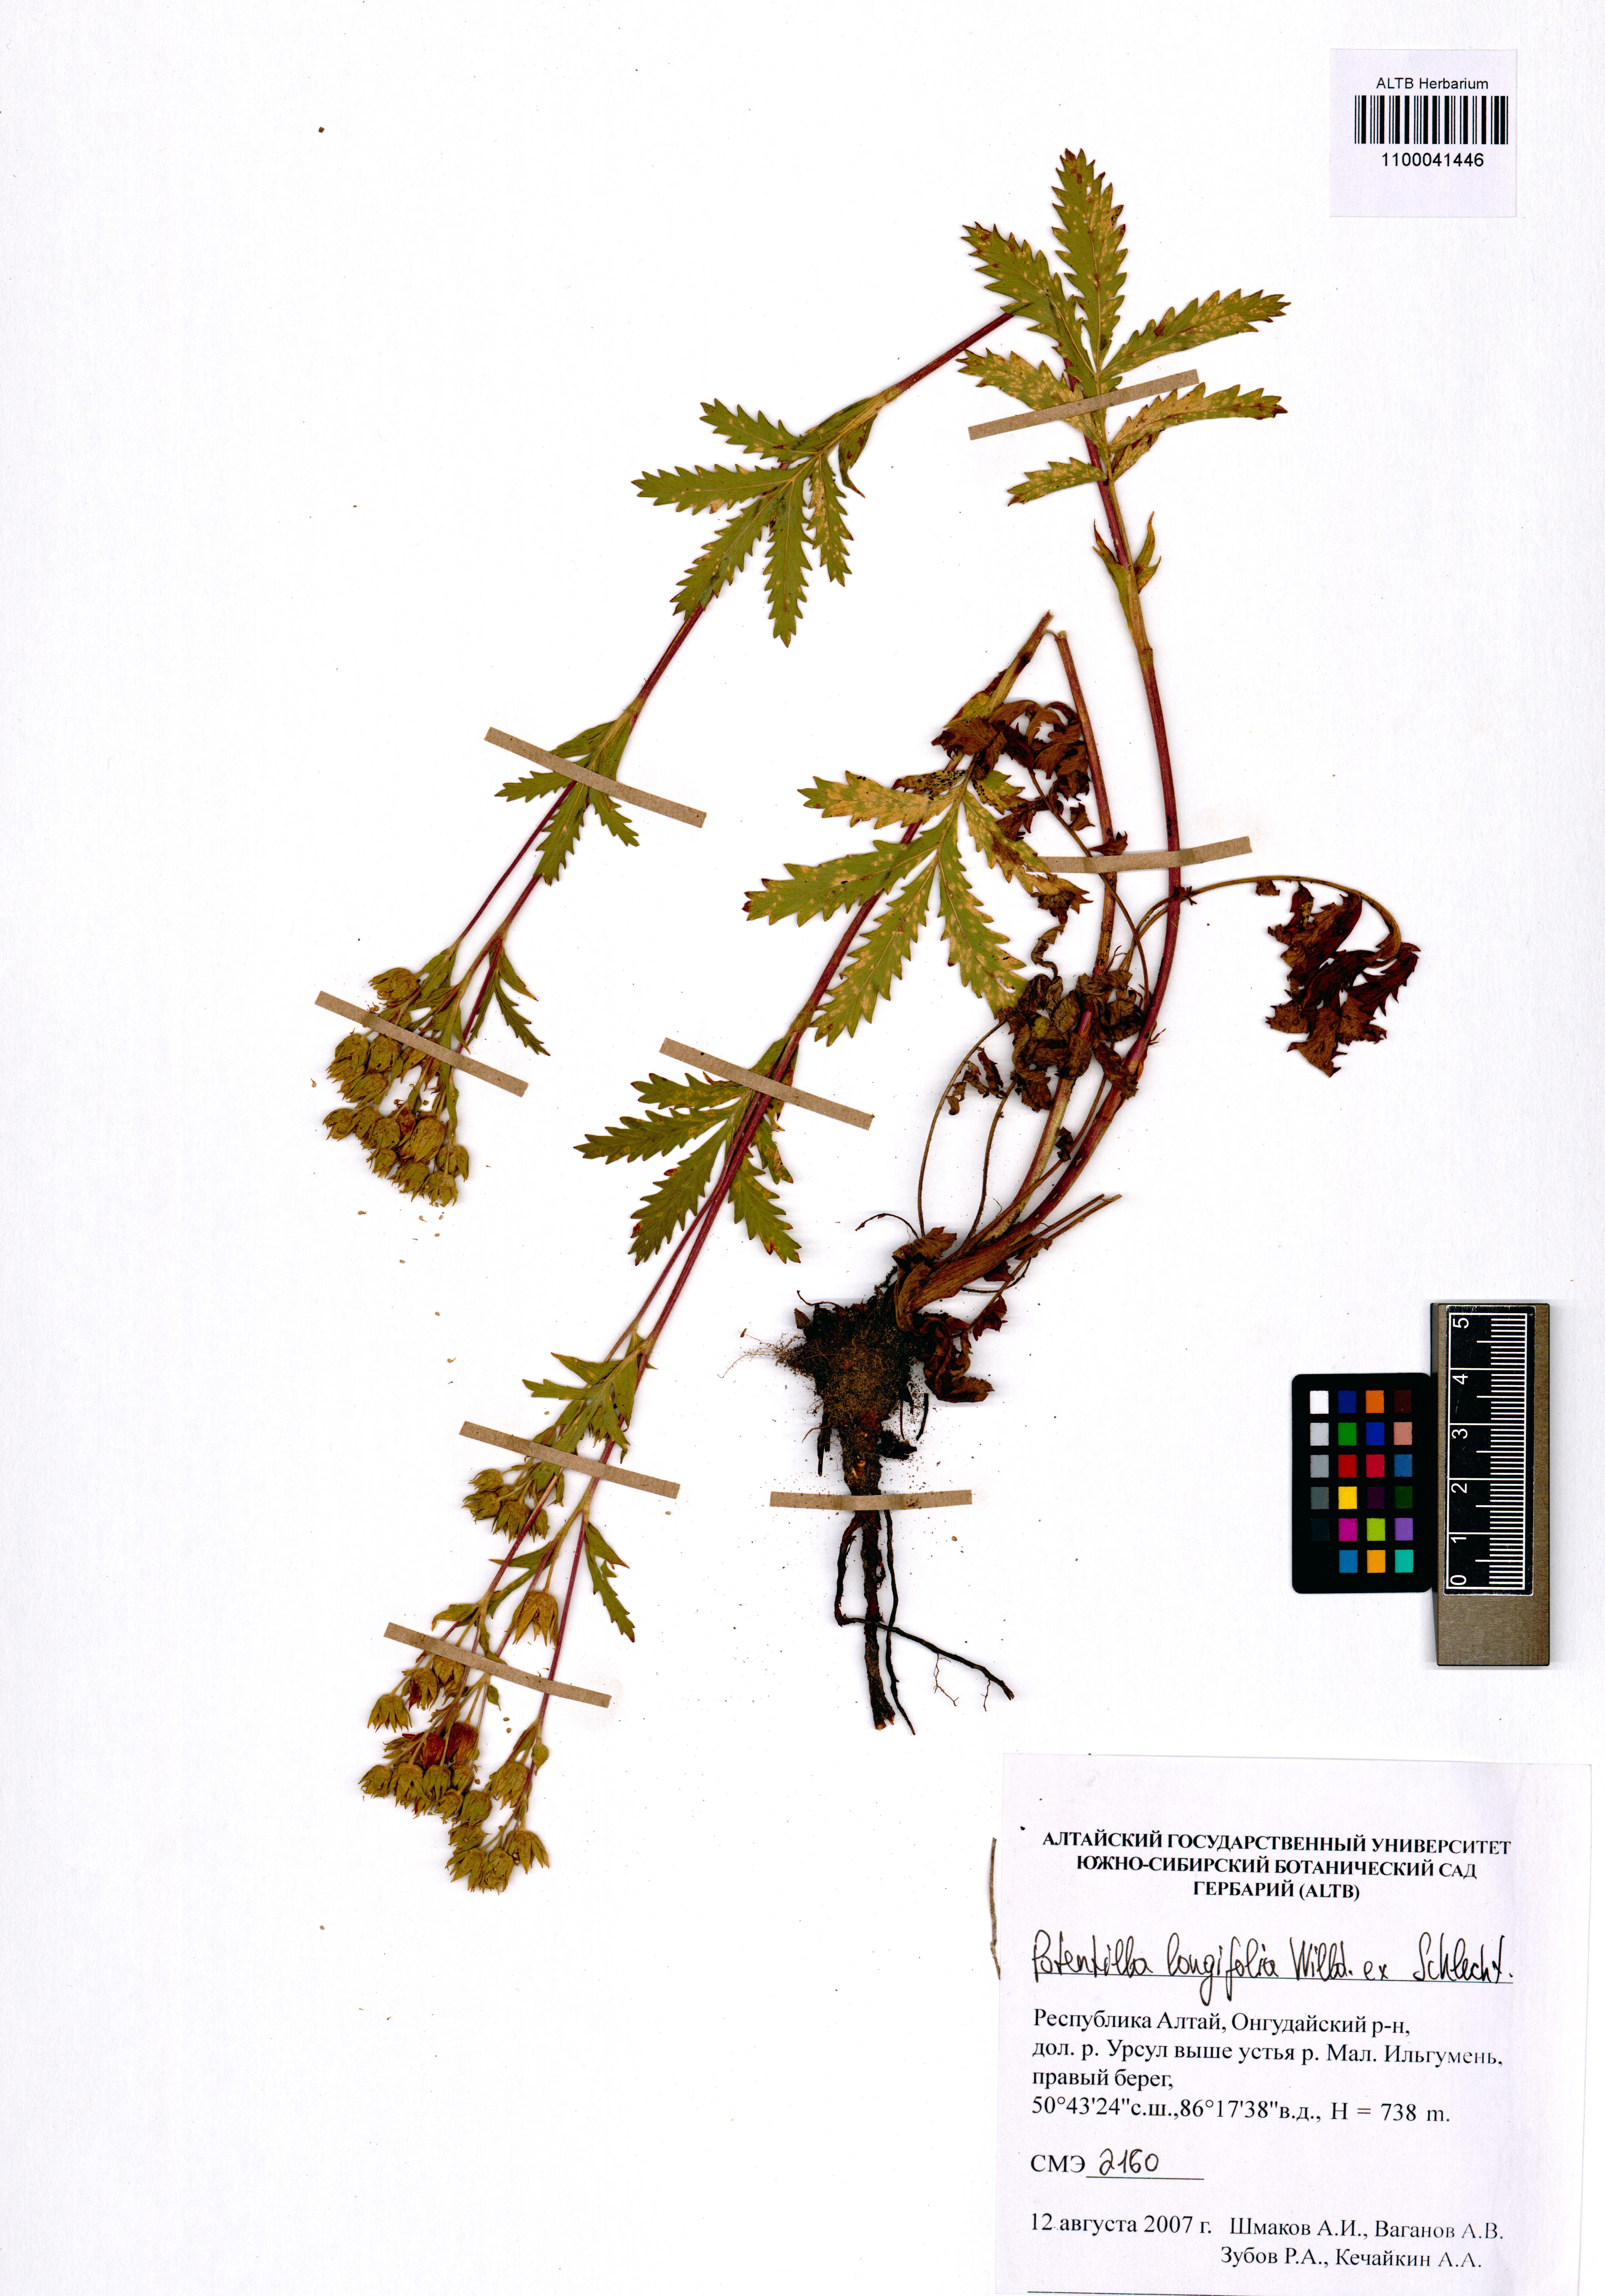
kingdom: Plantae
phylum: Tracheophyta
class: Magnoliopsida
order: Rosales
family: Rosaceae
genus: Potentilla
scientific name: Potentilla longifolia
